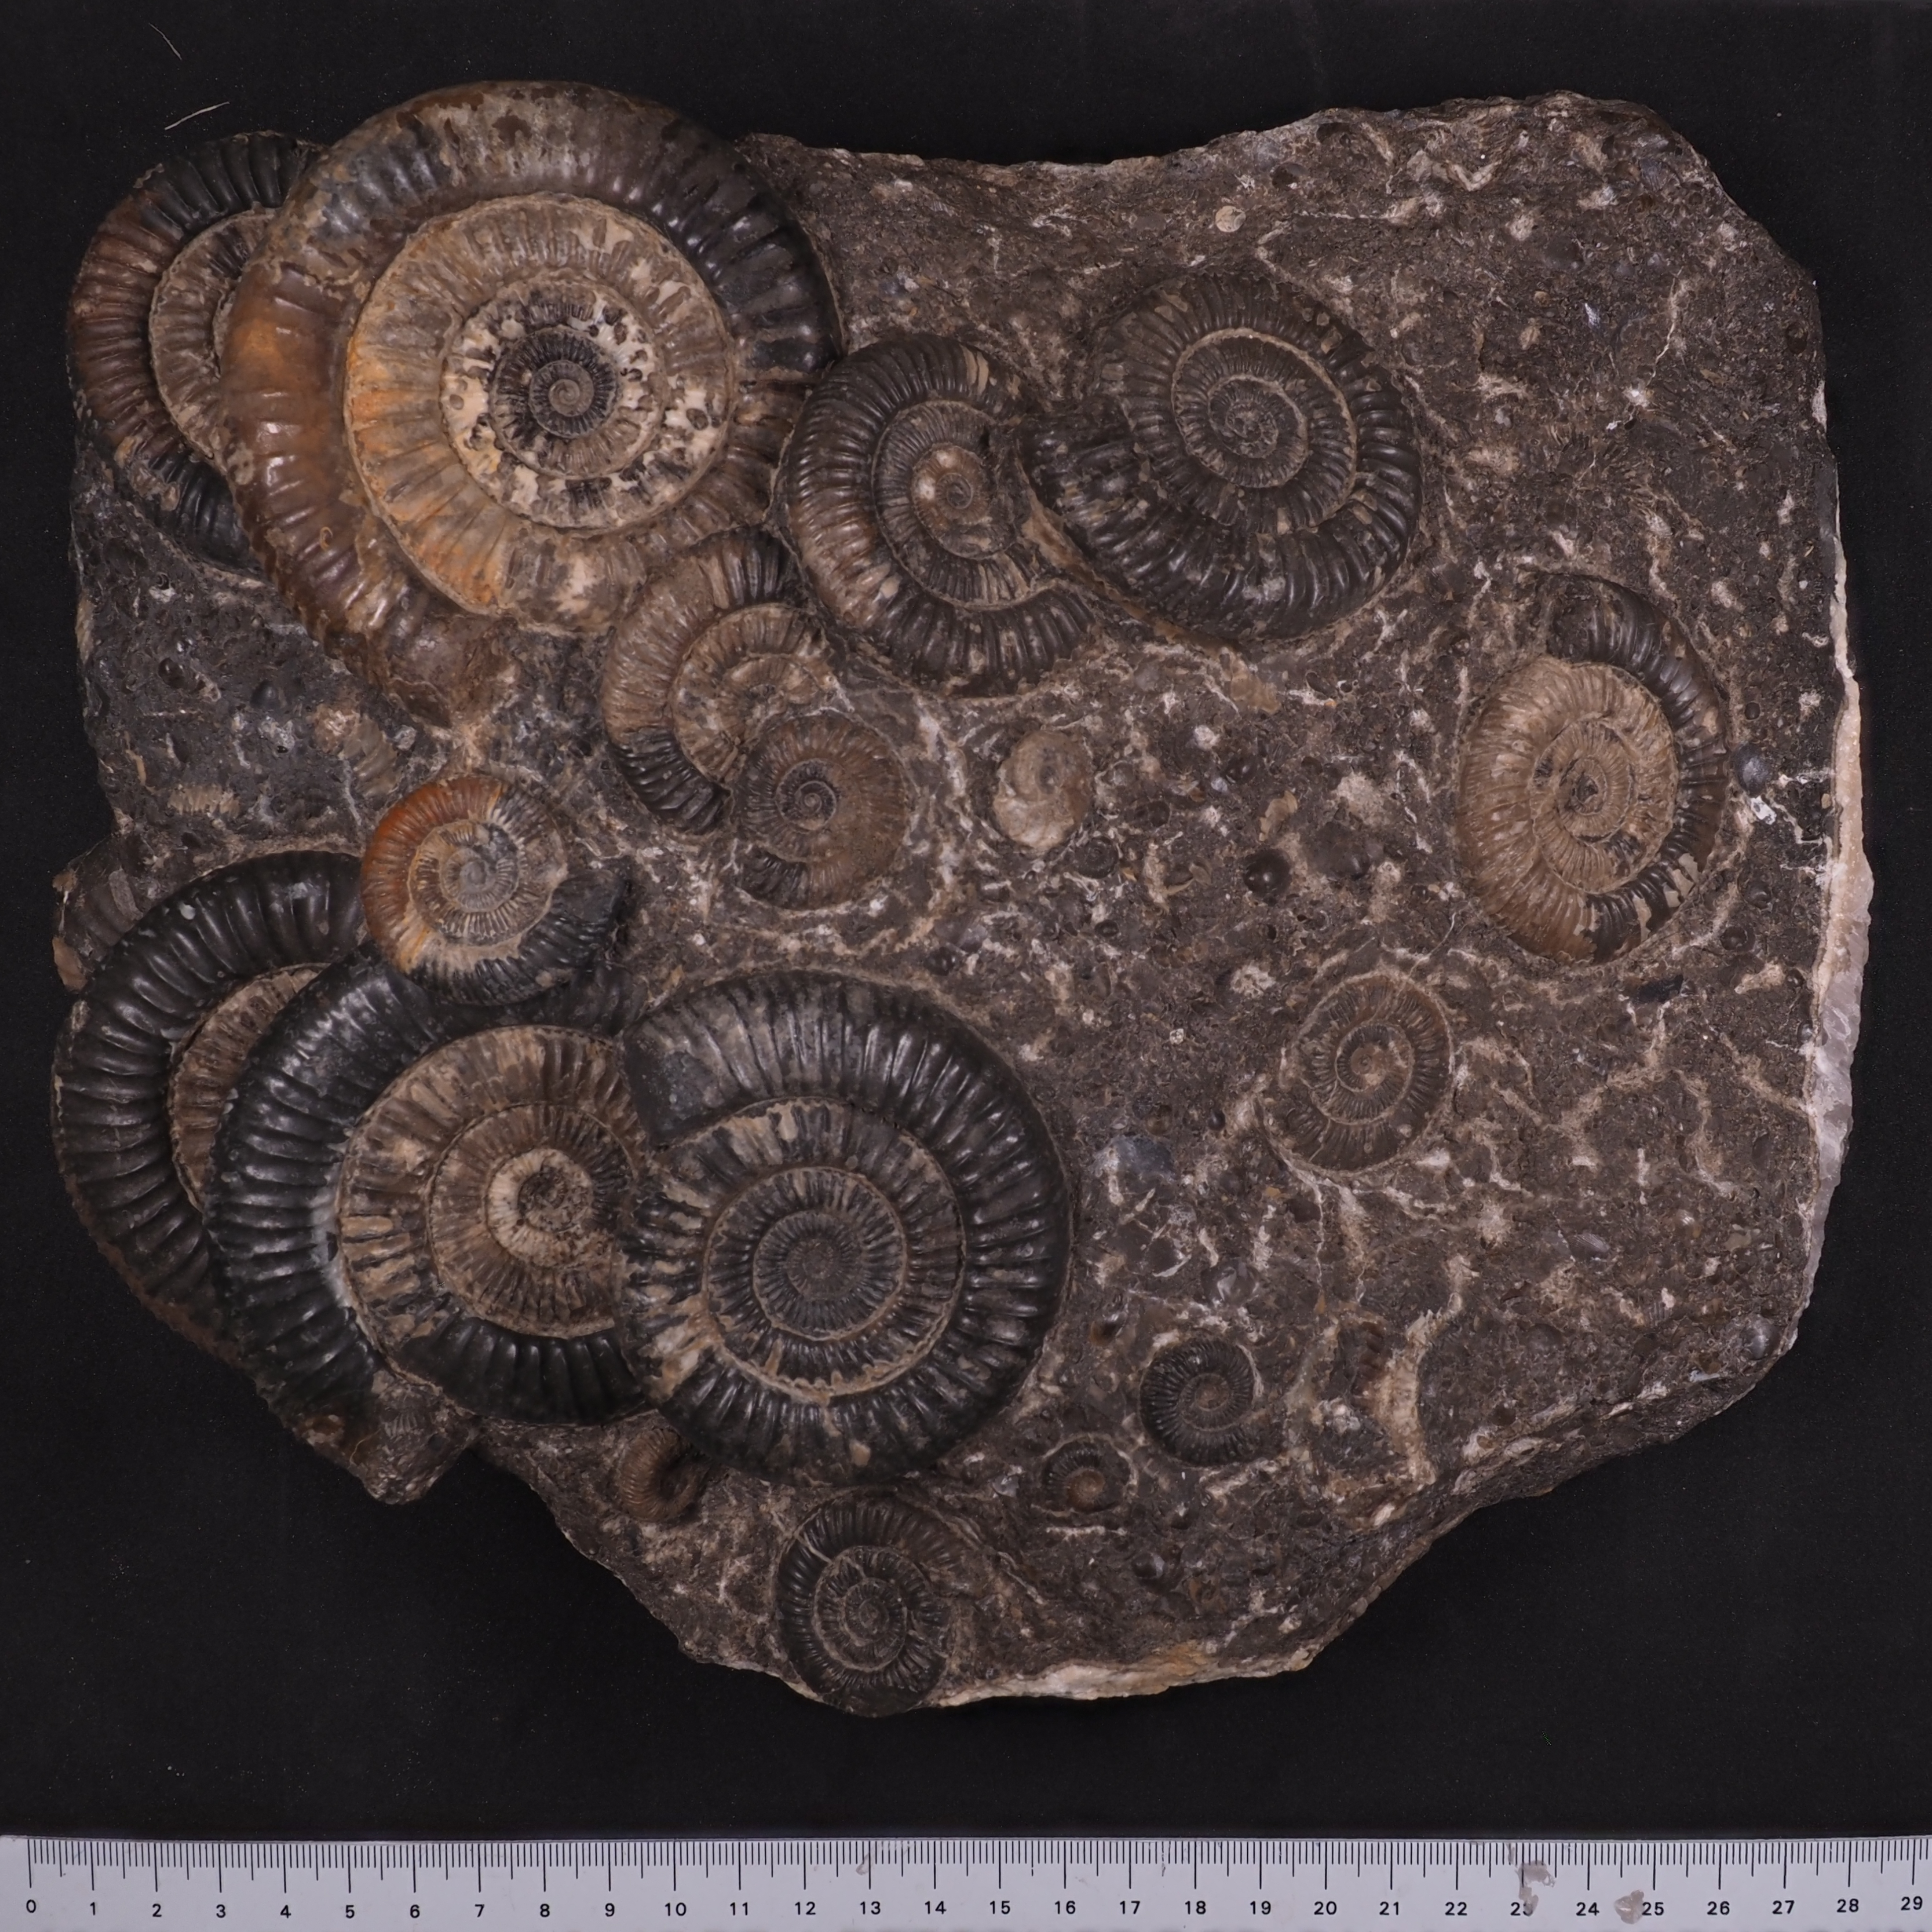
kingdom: Animalia
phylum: Mollusca
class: Cephalopoda
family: Dactylioceratidae
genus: Dactylioceras
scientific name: Dactylioceras
